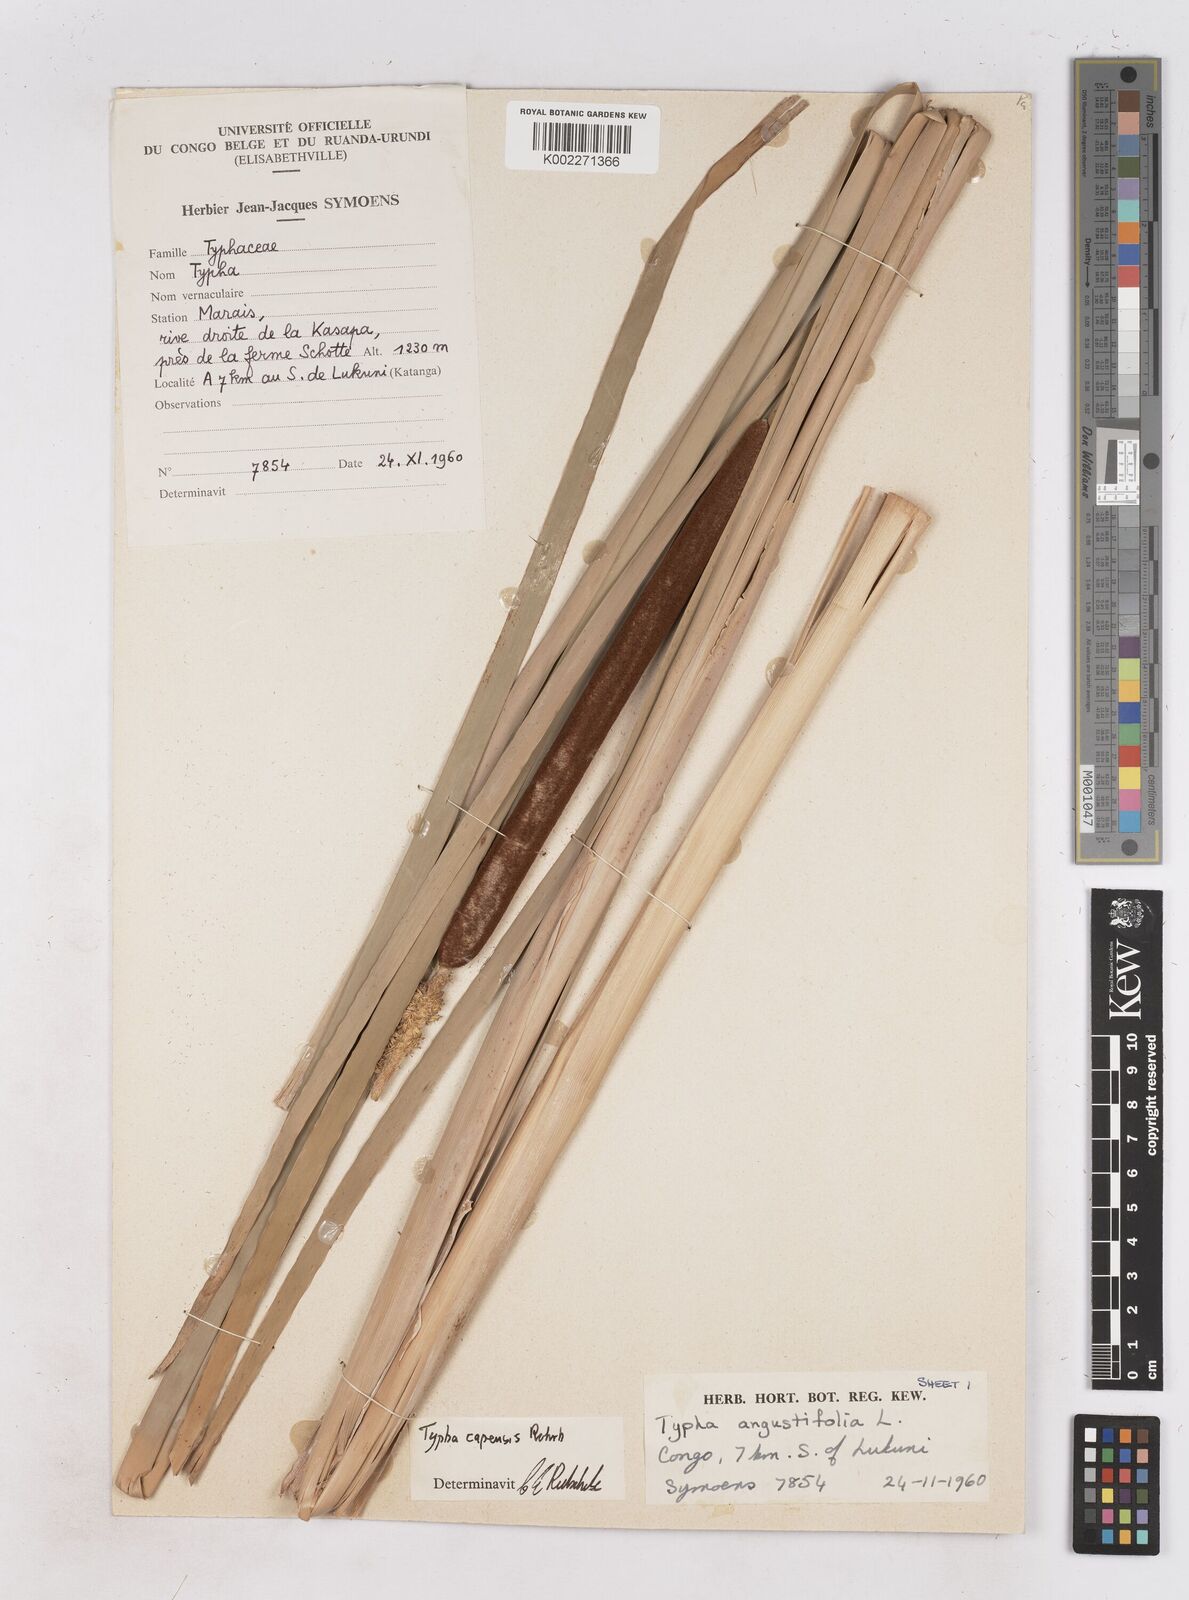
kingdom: Plantae
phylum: Tracheophyta
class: Liliopsida
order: Poales
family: Typhaceae
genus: Typha
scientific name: Typha capensis
